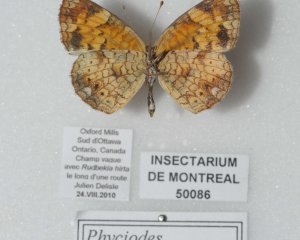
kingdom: Animalia
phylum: Arthropoda
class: Insecta
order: Lepidoptera
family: Nymphalidae
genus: Phyciodes
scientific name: Phyciodes tharos
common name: Pearl Crescent
